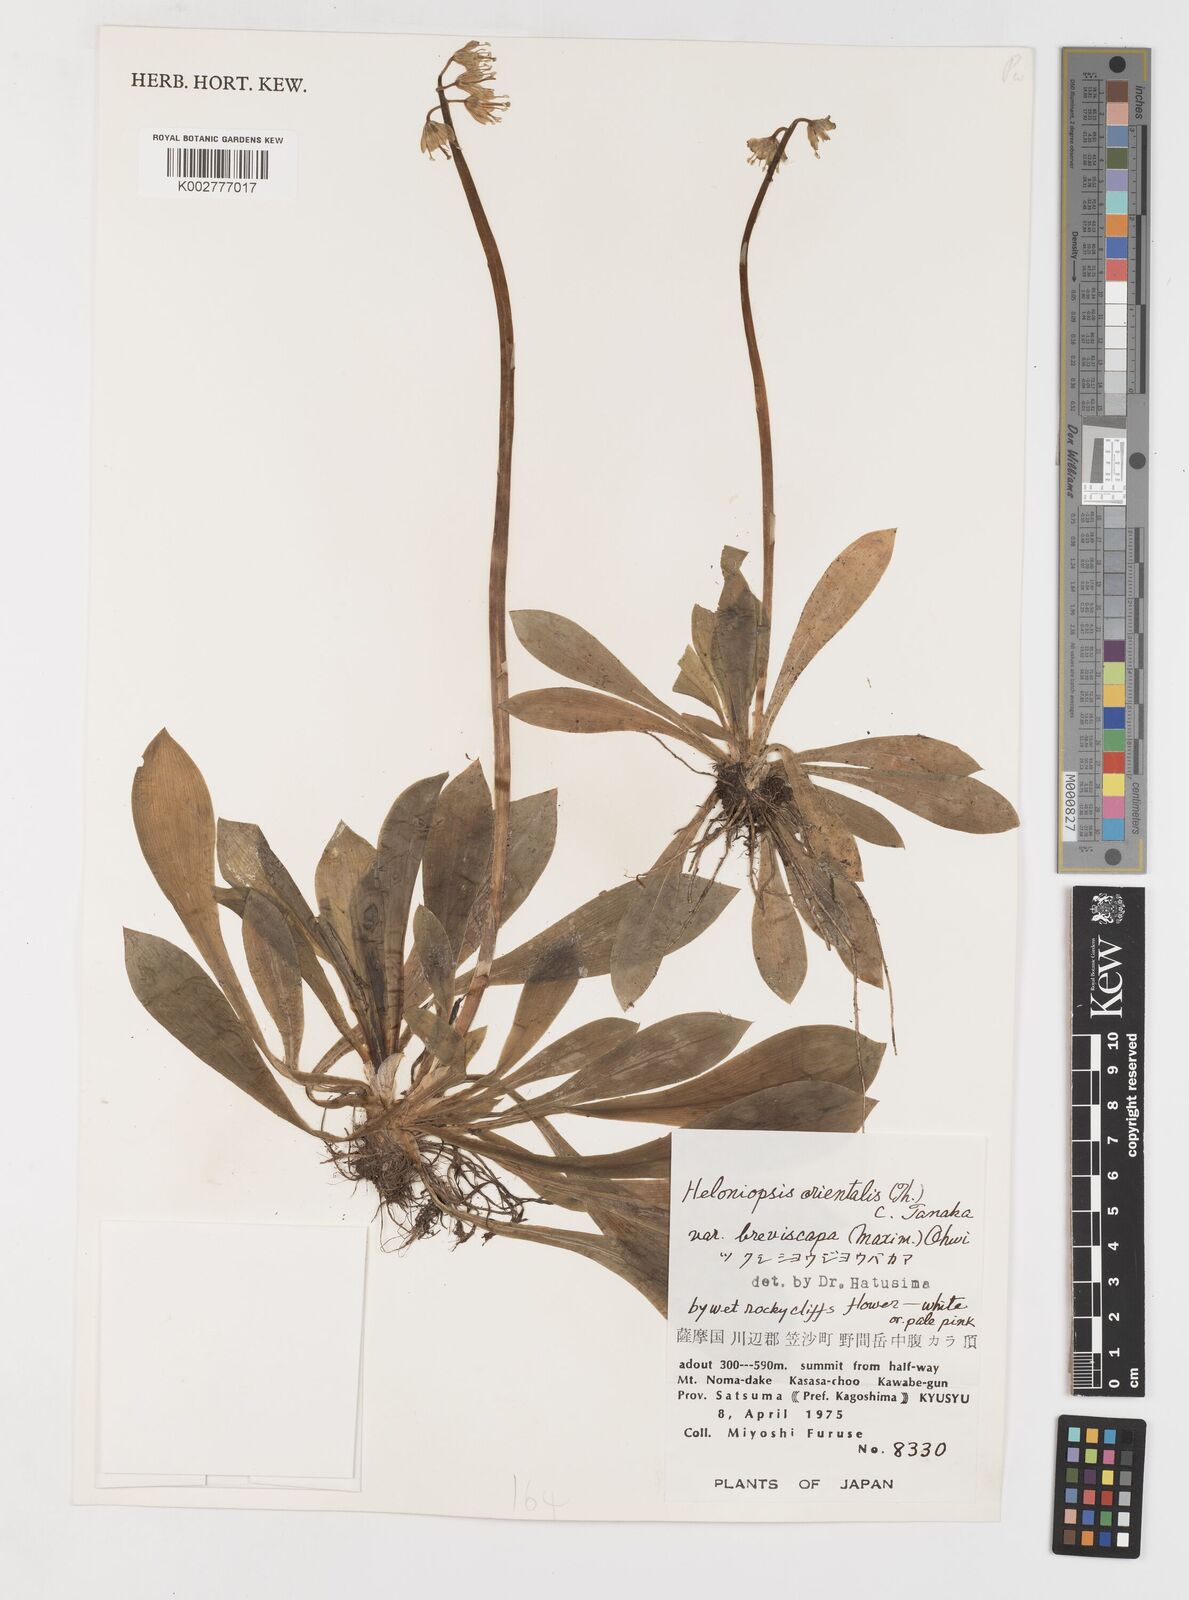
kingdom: Plantae
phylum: Tracheophyta
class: Liliopsida
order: Liliales
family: Melanthiaceae
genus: Helonias
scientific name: Helonias orientalis
